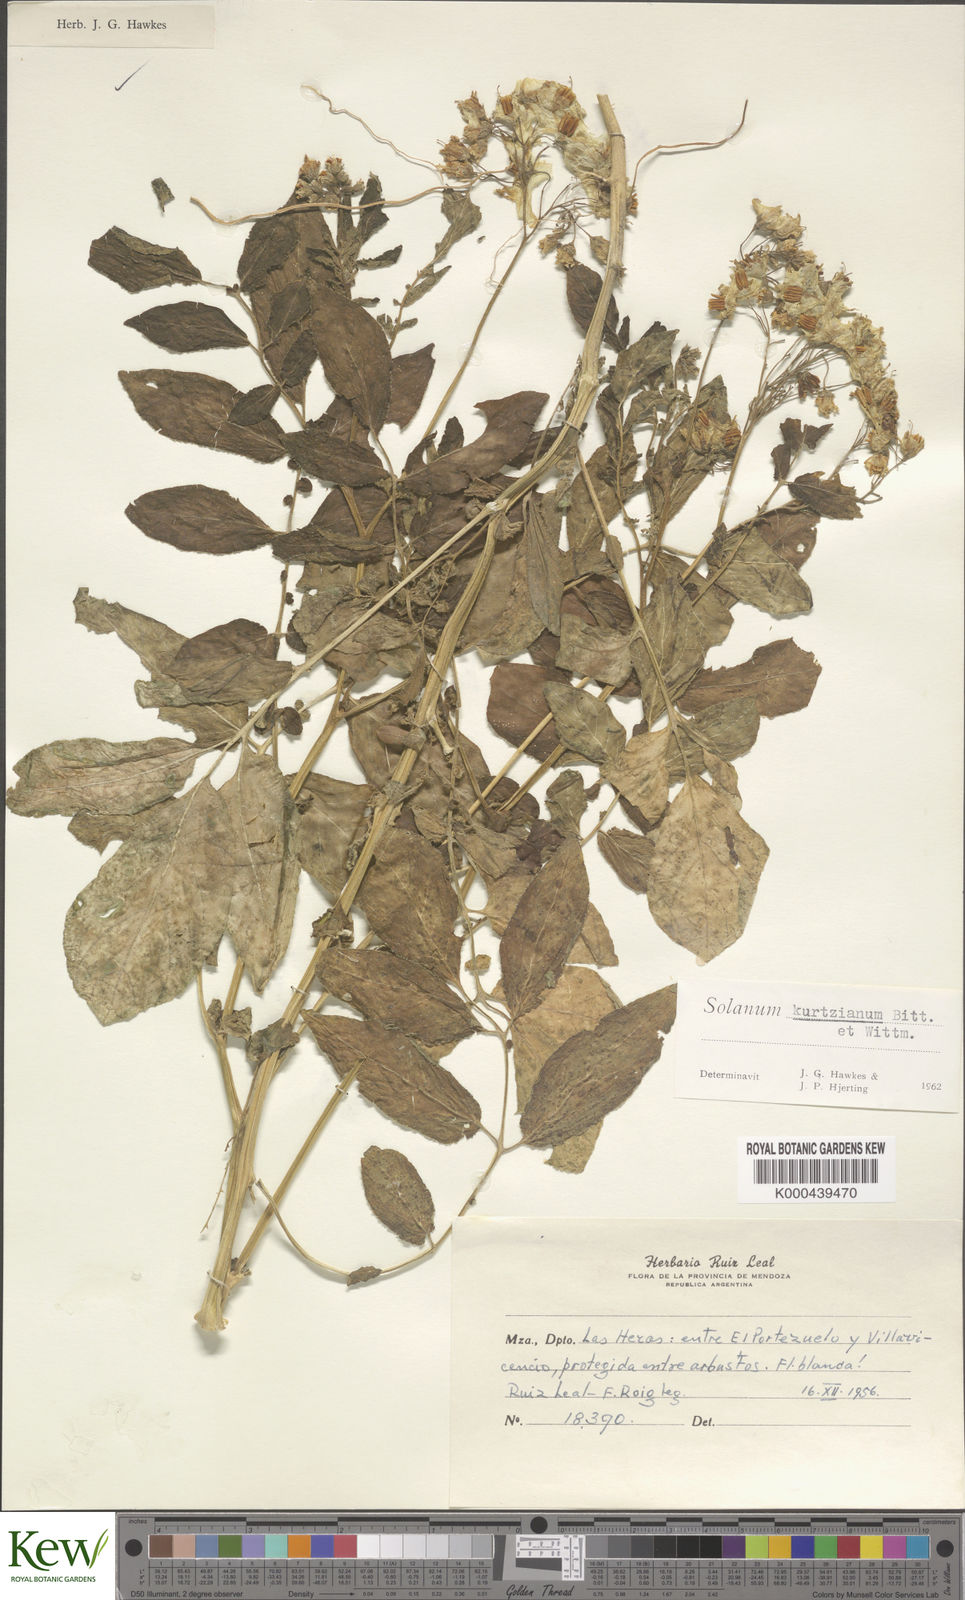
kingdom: Plantae
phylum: Tracheophyta
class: Magnoliopsida
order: Solanales
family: Solanaceae
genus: Solanum
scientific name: Solanum kurtzianum
